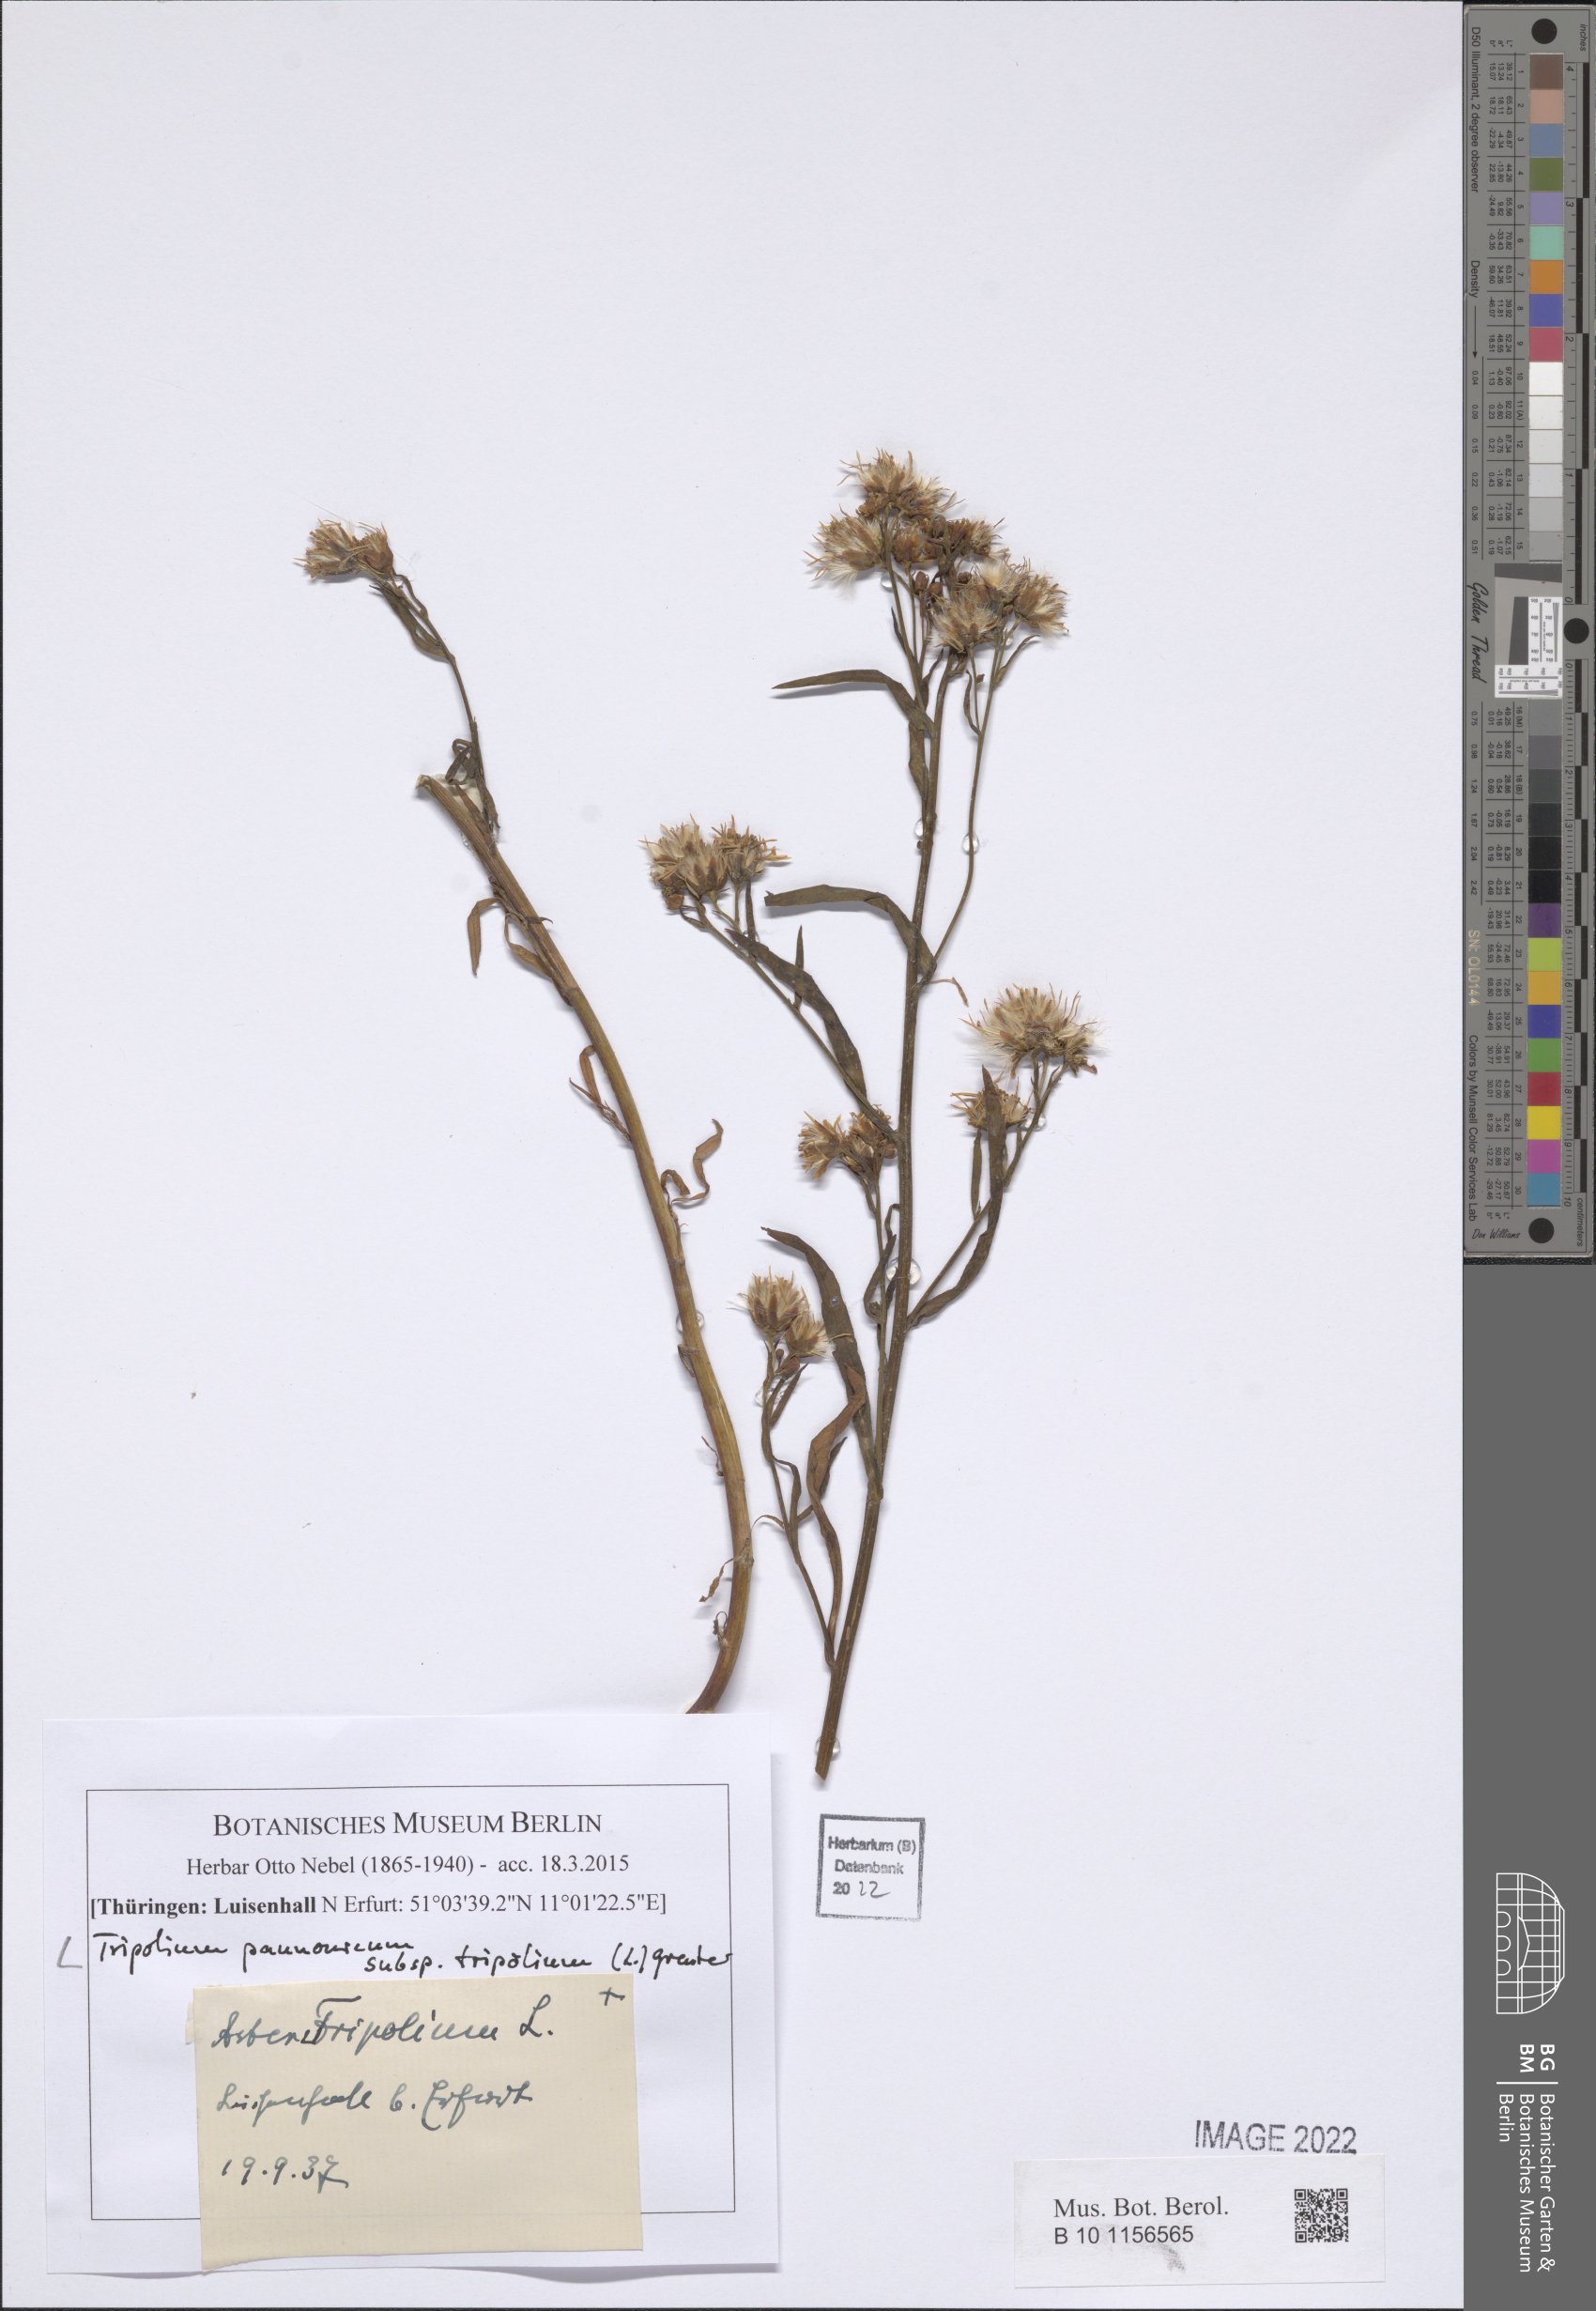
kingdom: Plantae
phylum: Tracheophyta
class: Magnoliopsida
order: Asterales
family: Asteraceae
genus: Tripolium
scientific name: Tripolium pannonicum
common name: Sea aster
